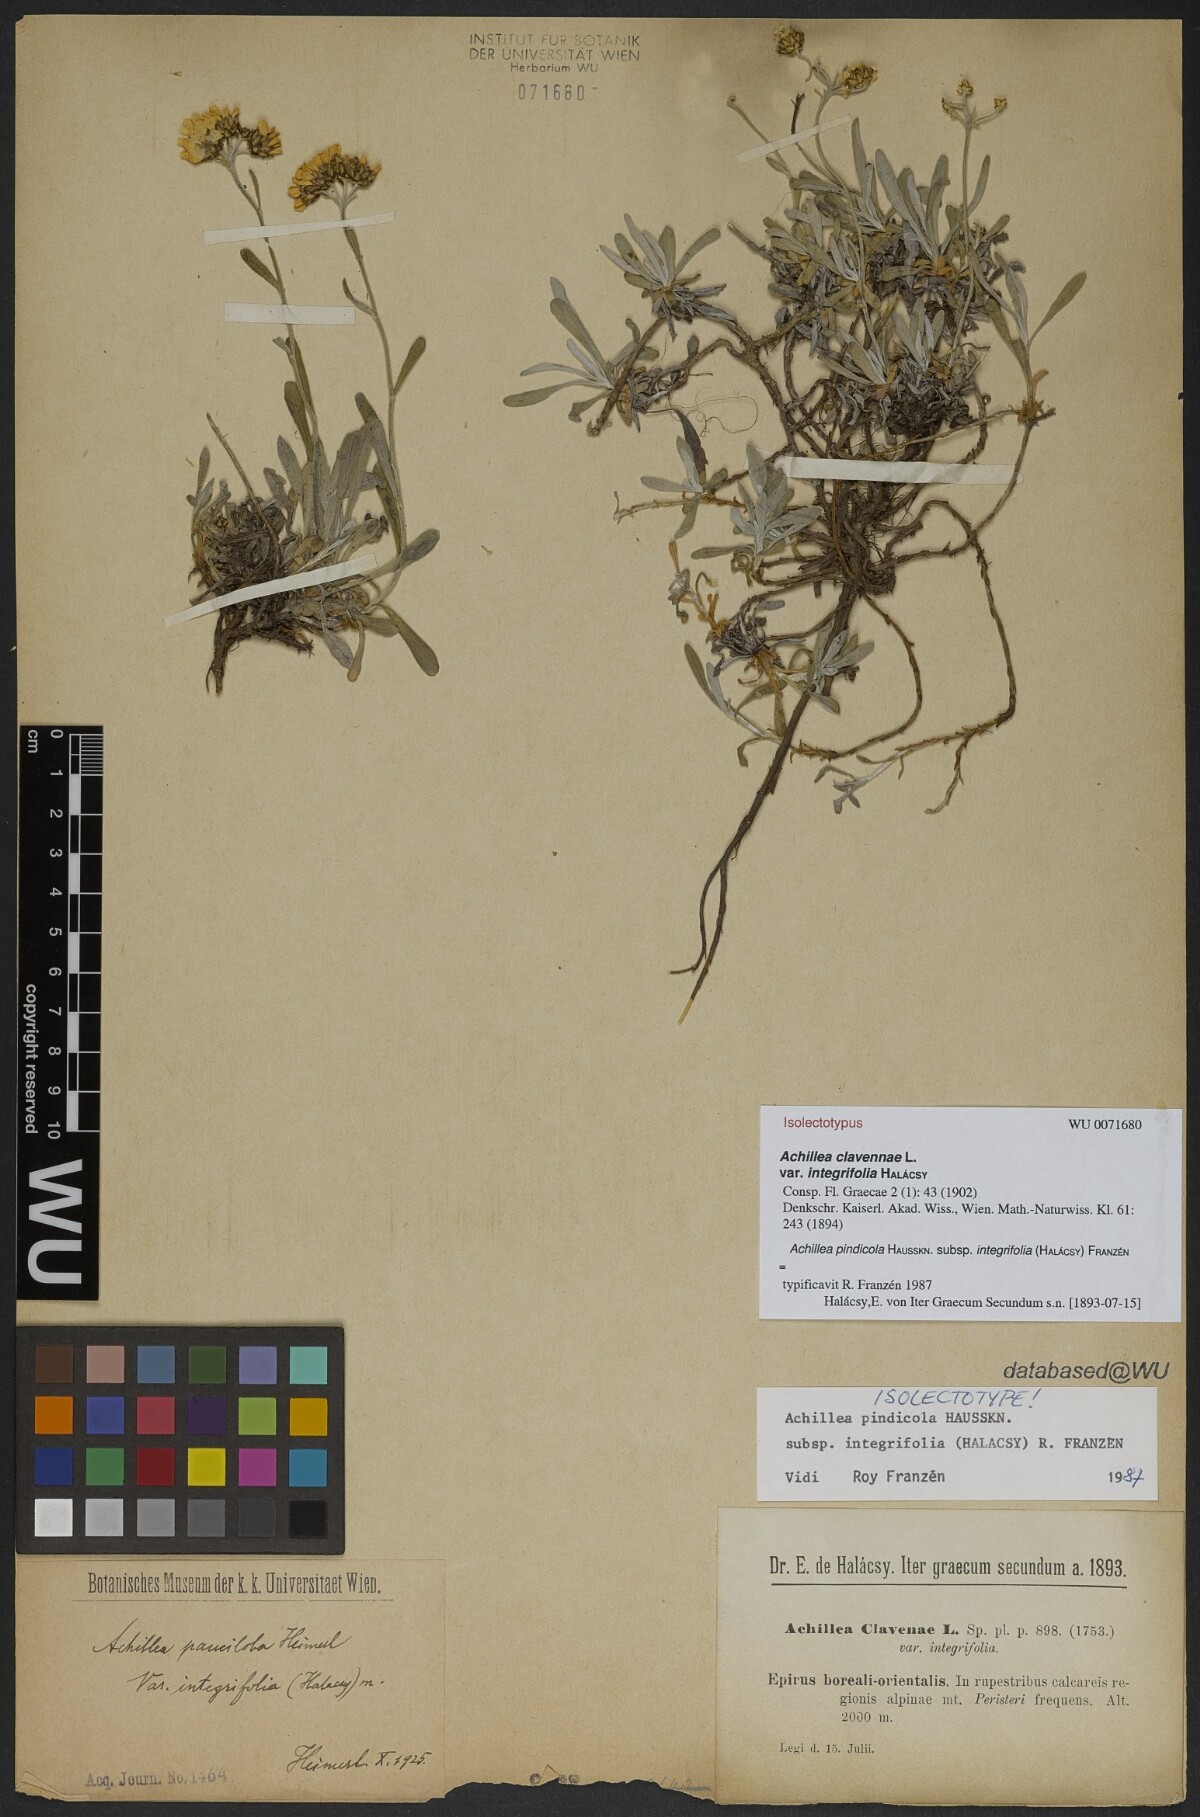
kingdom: Plantae
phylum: Tracheophyta
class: Magnoliopsida
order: Asterales
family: Asteraceae
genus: Achillea
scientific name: Achillea pindicola
